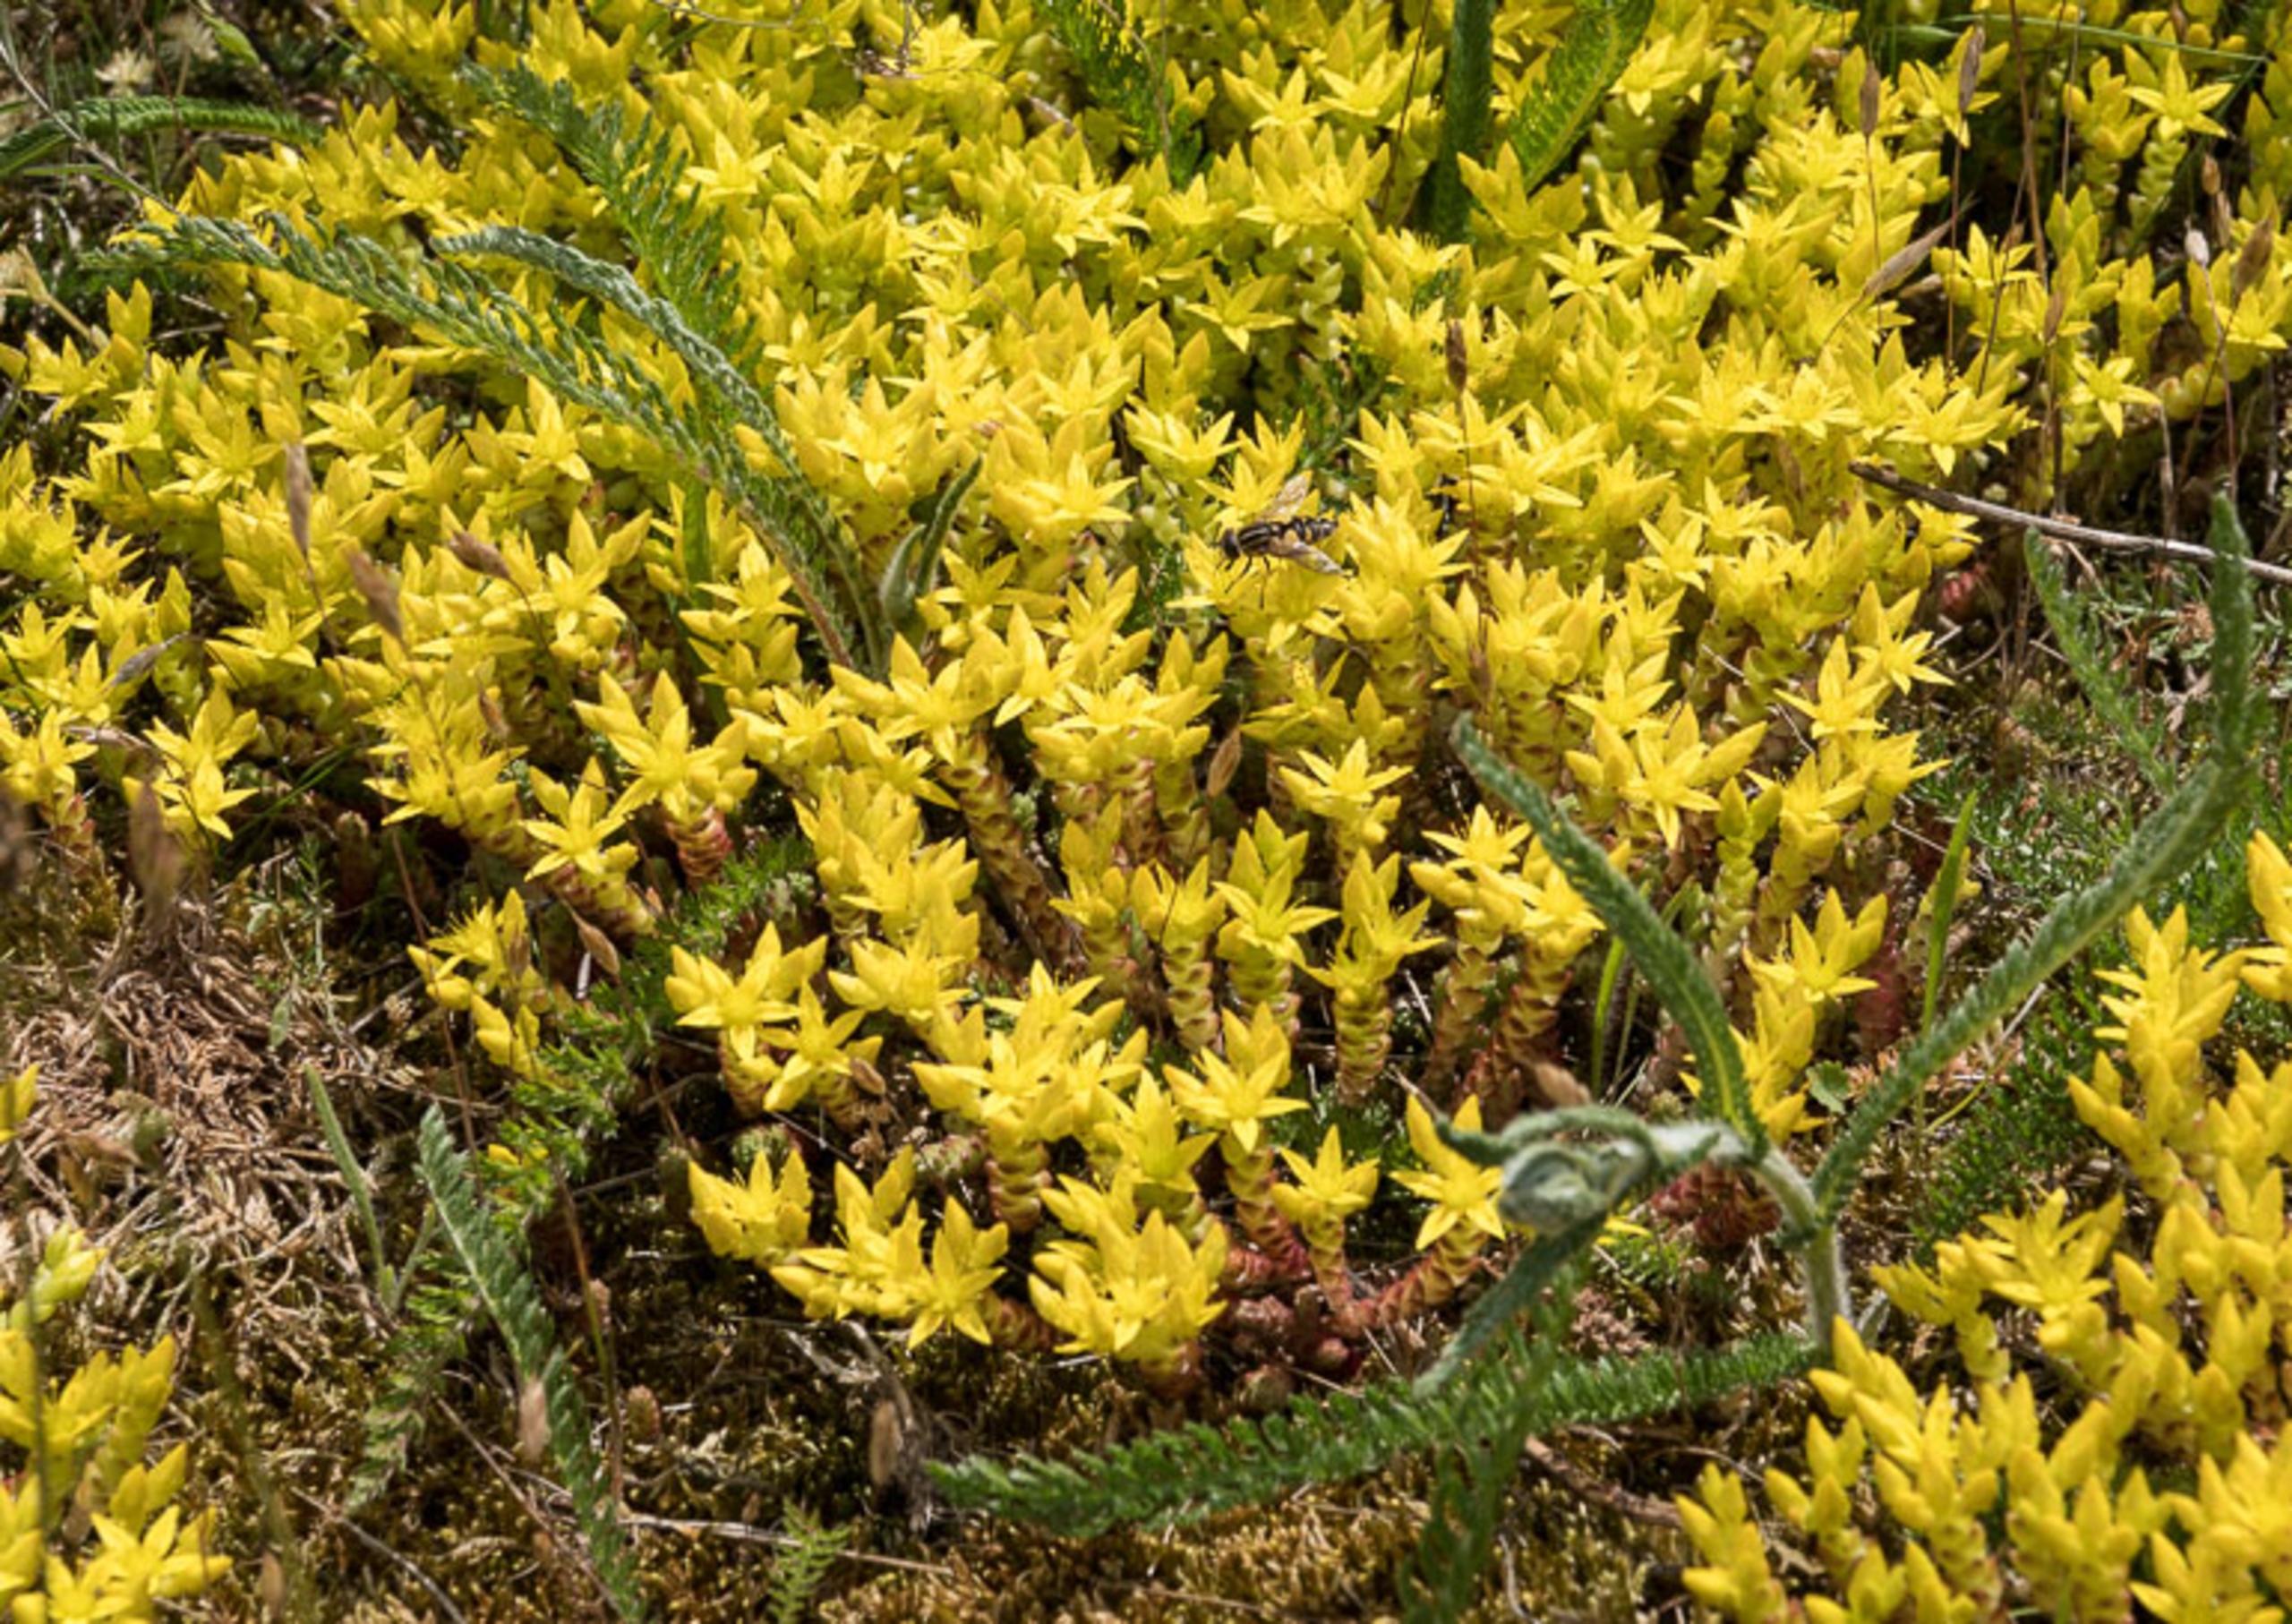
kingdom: Plantae
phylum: Tracheophyta
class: Magnoliopsida
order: Saxifragales
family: Crassulaceae
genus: Sedum
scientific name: Sedum acre
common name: Bidende stenurt
